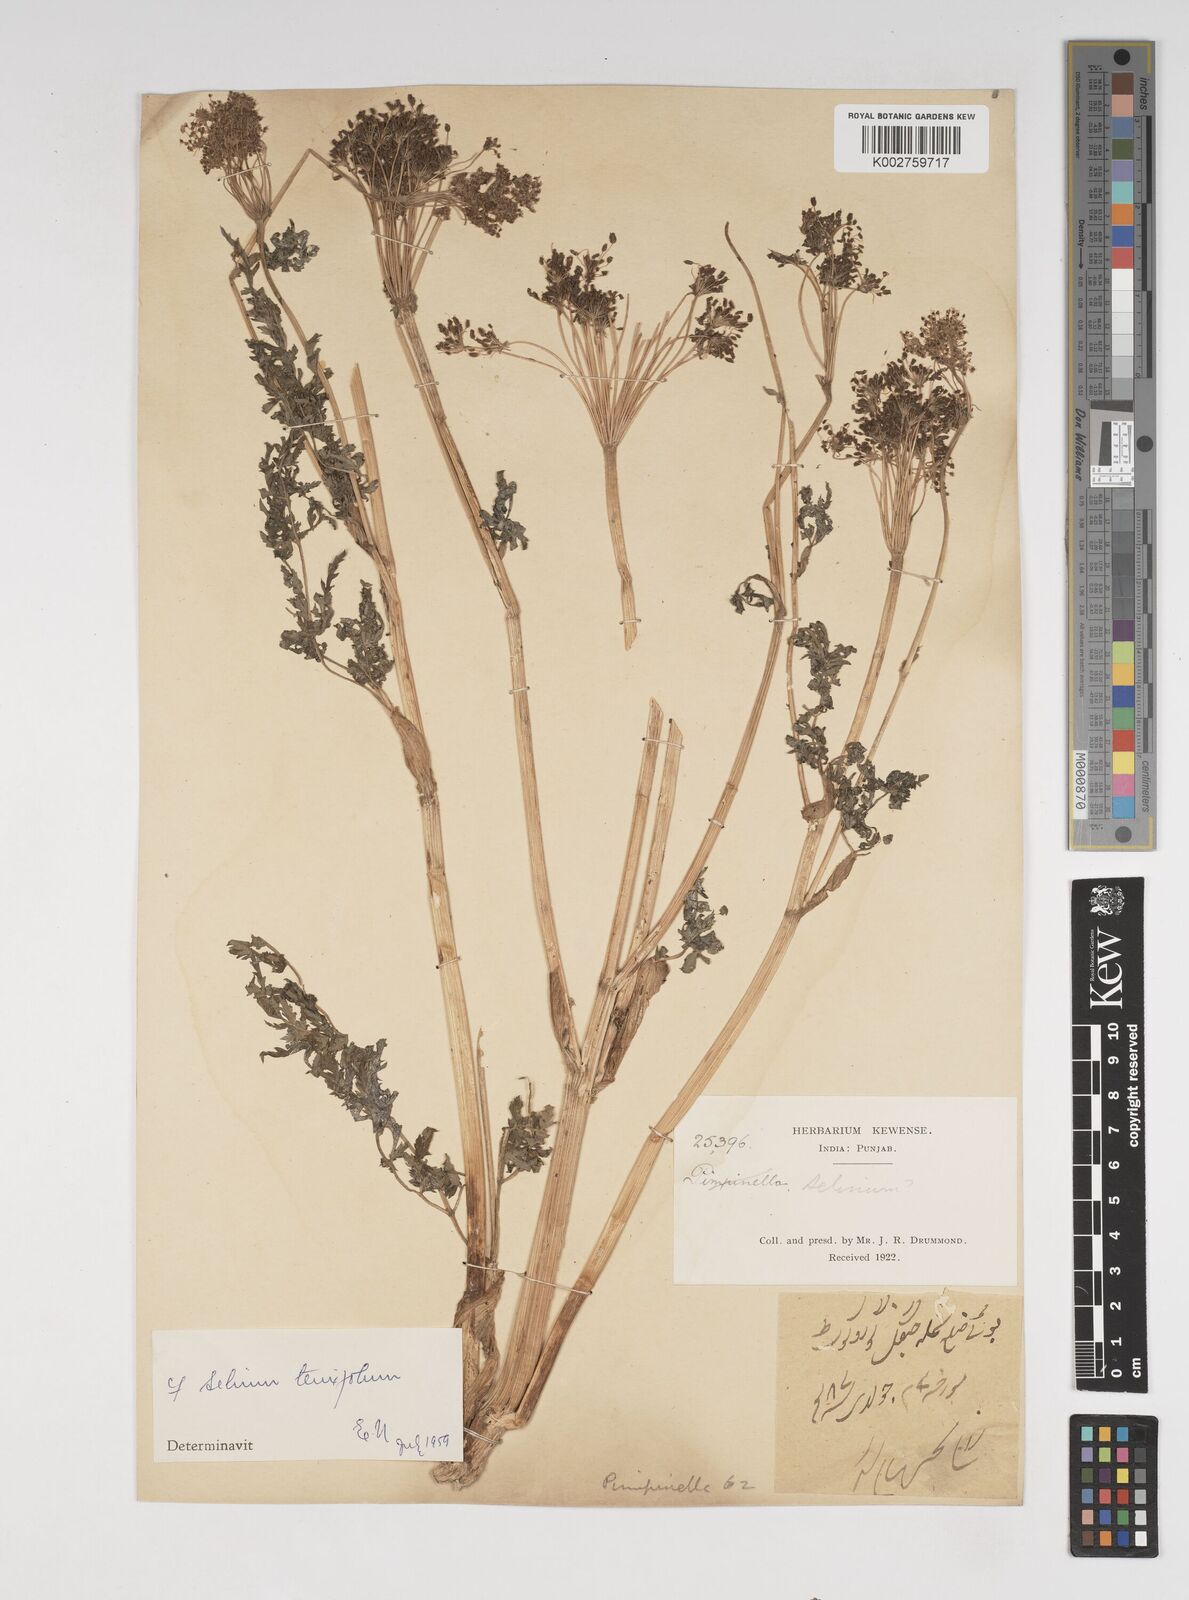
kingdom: Plantae
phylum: Tracheophyta
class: Magnoliopsida
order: Apiales
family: Apiaceae
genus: Selinum
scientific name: Selinum
